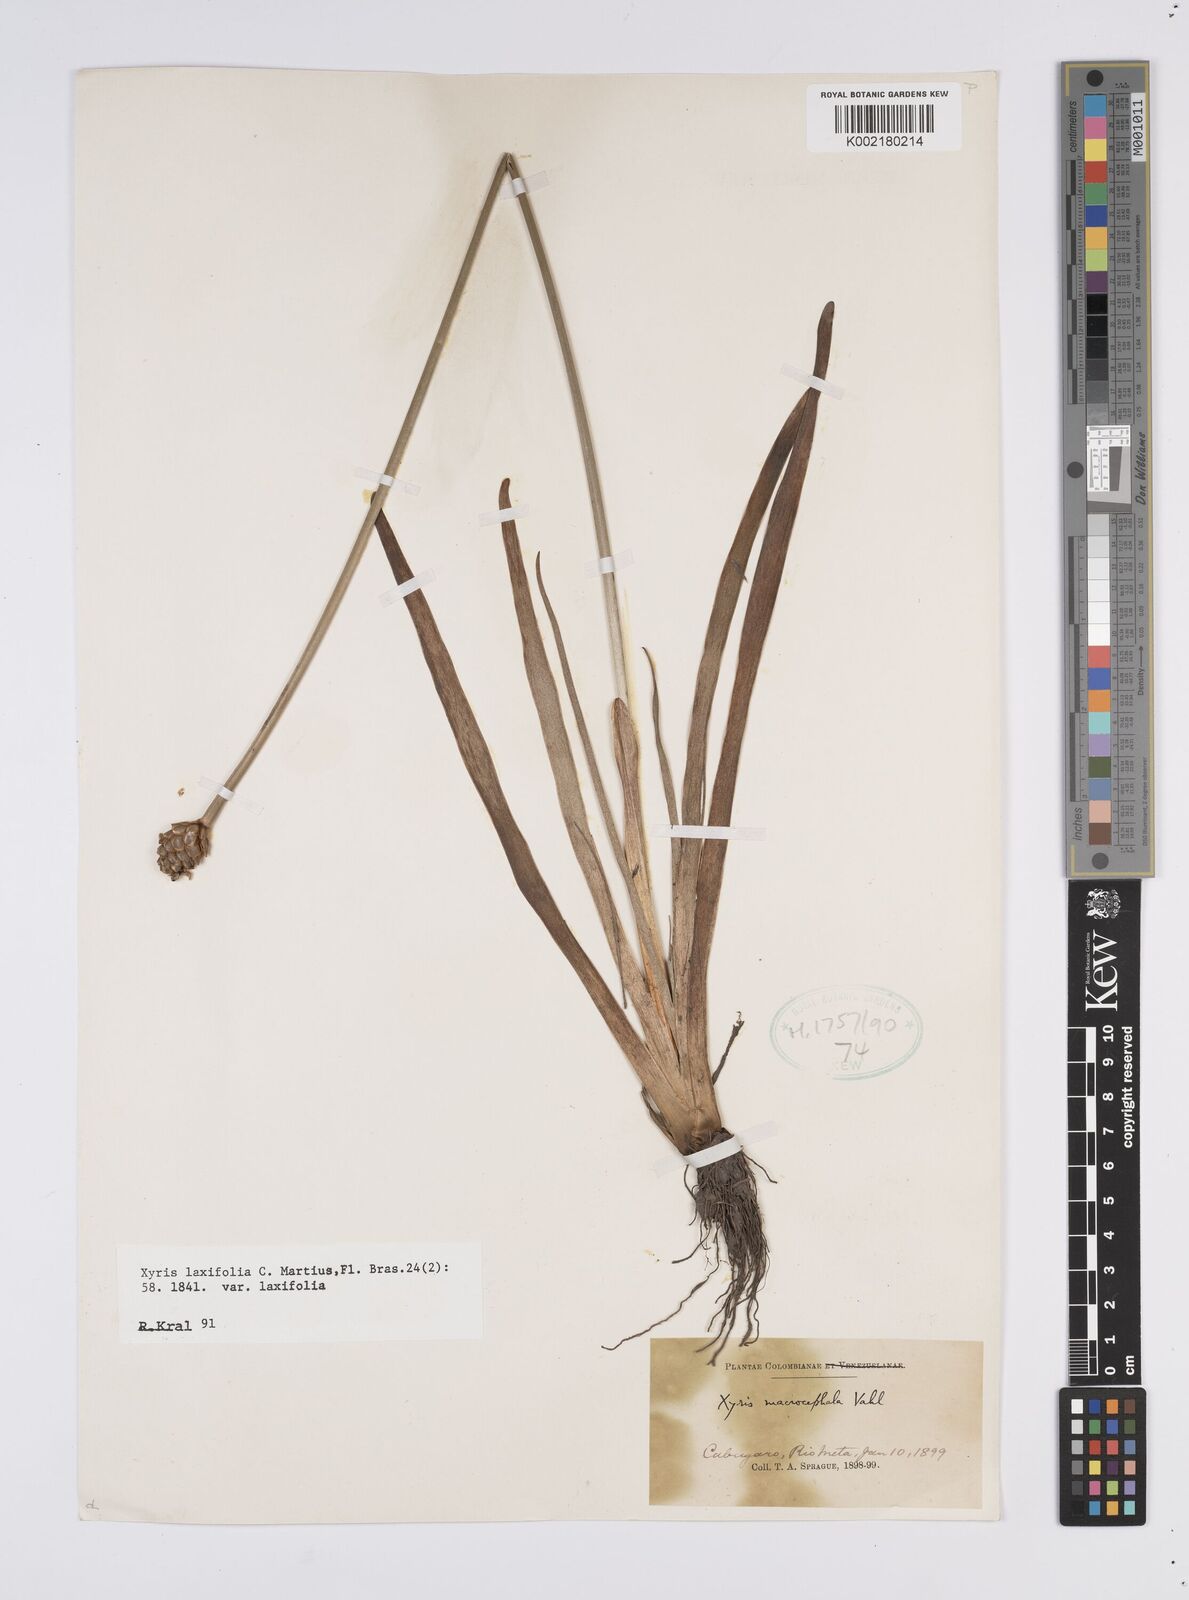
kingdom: Plantae
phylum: Tracheophyta
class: Liliopsida
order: Poales
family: Xyridaceae
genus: Xyris
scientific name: Xyris laxiflora
